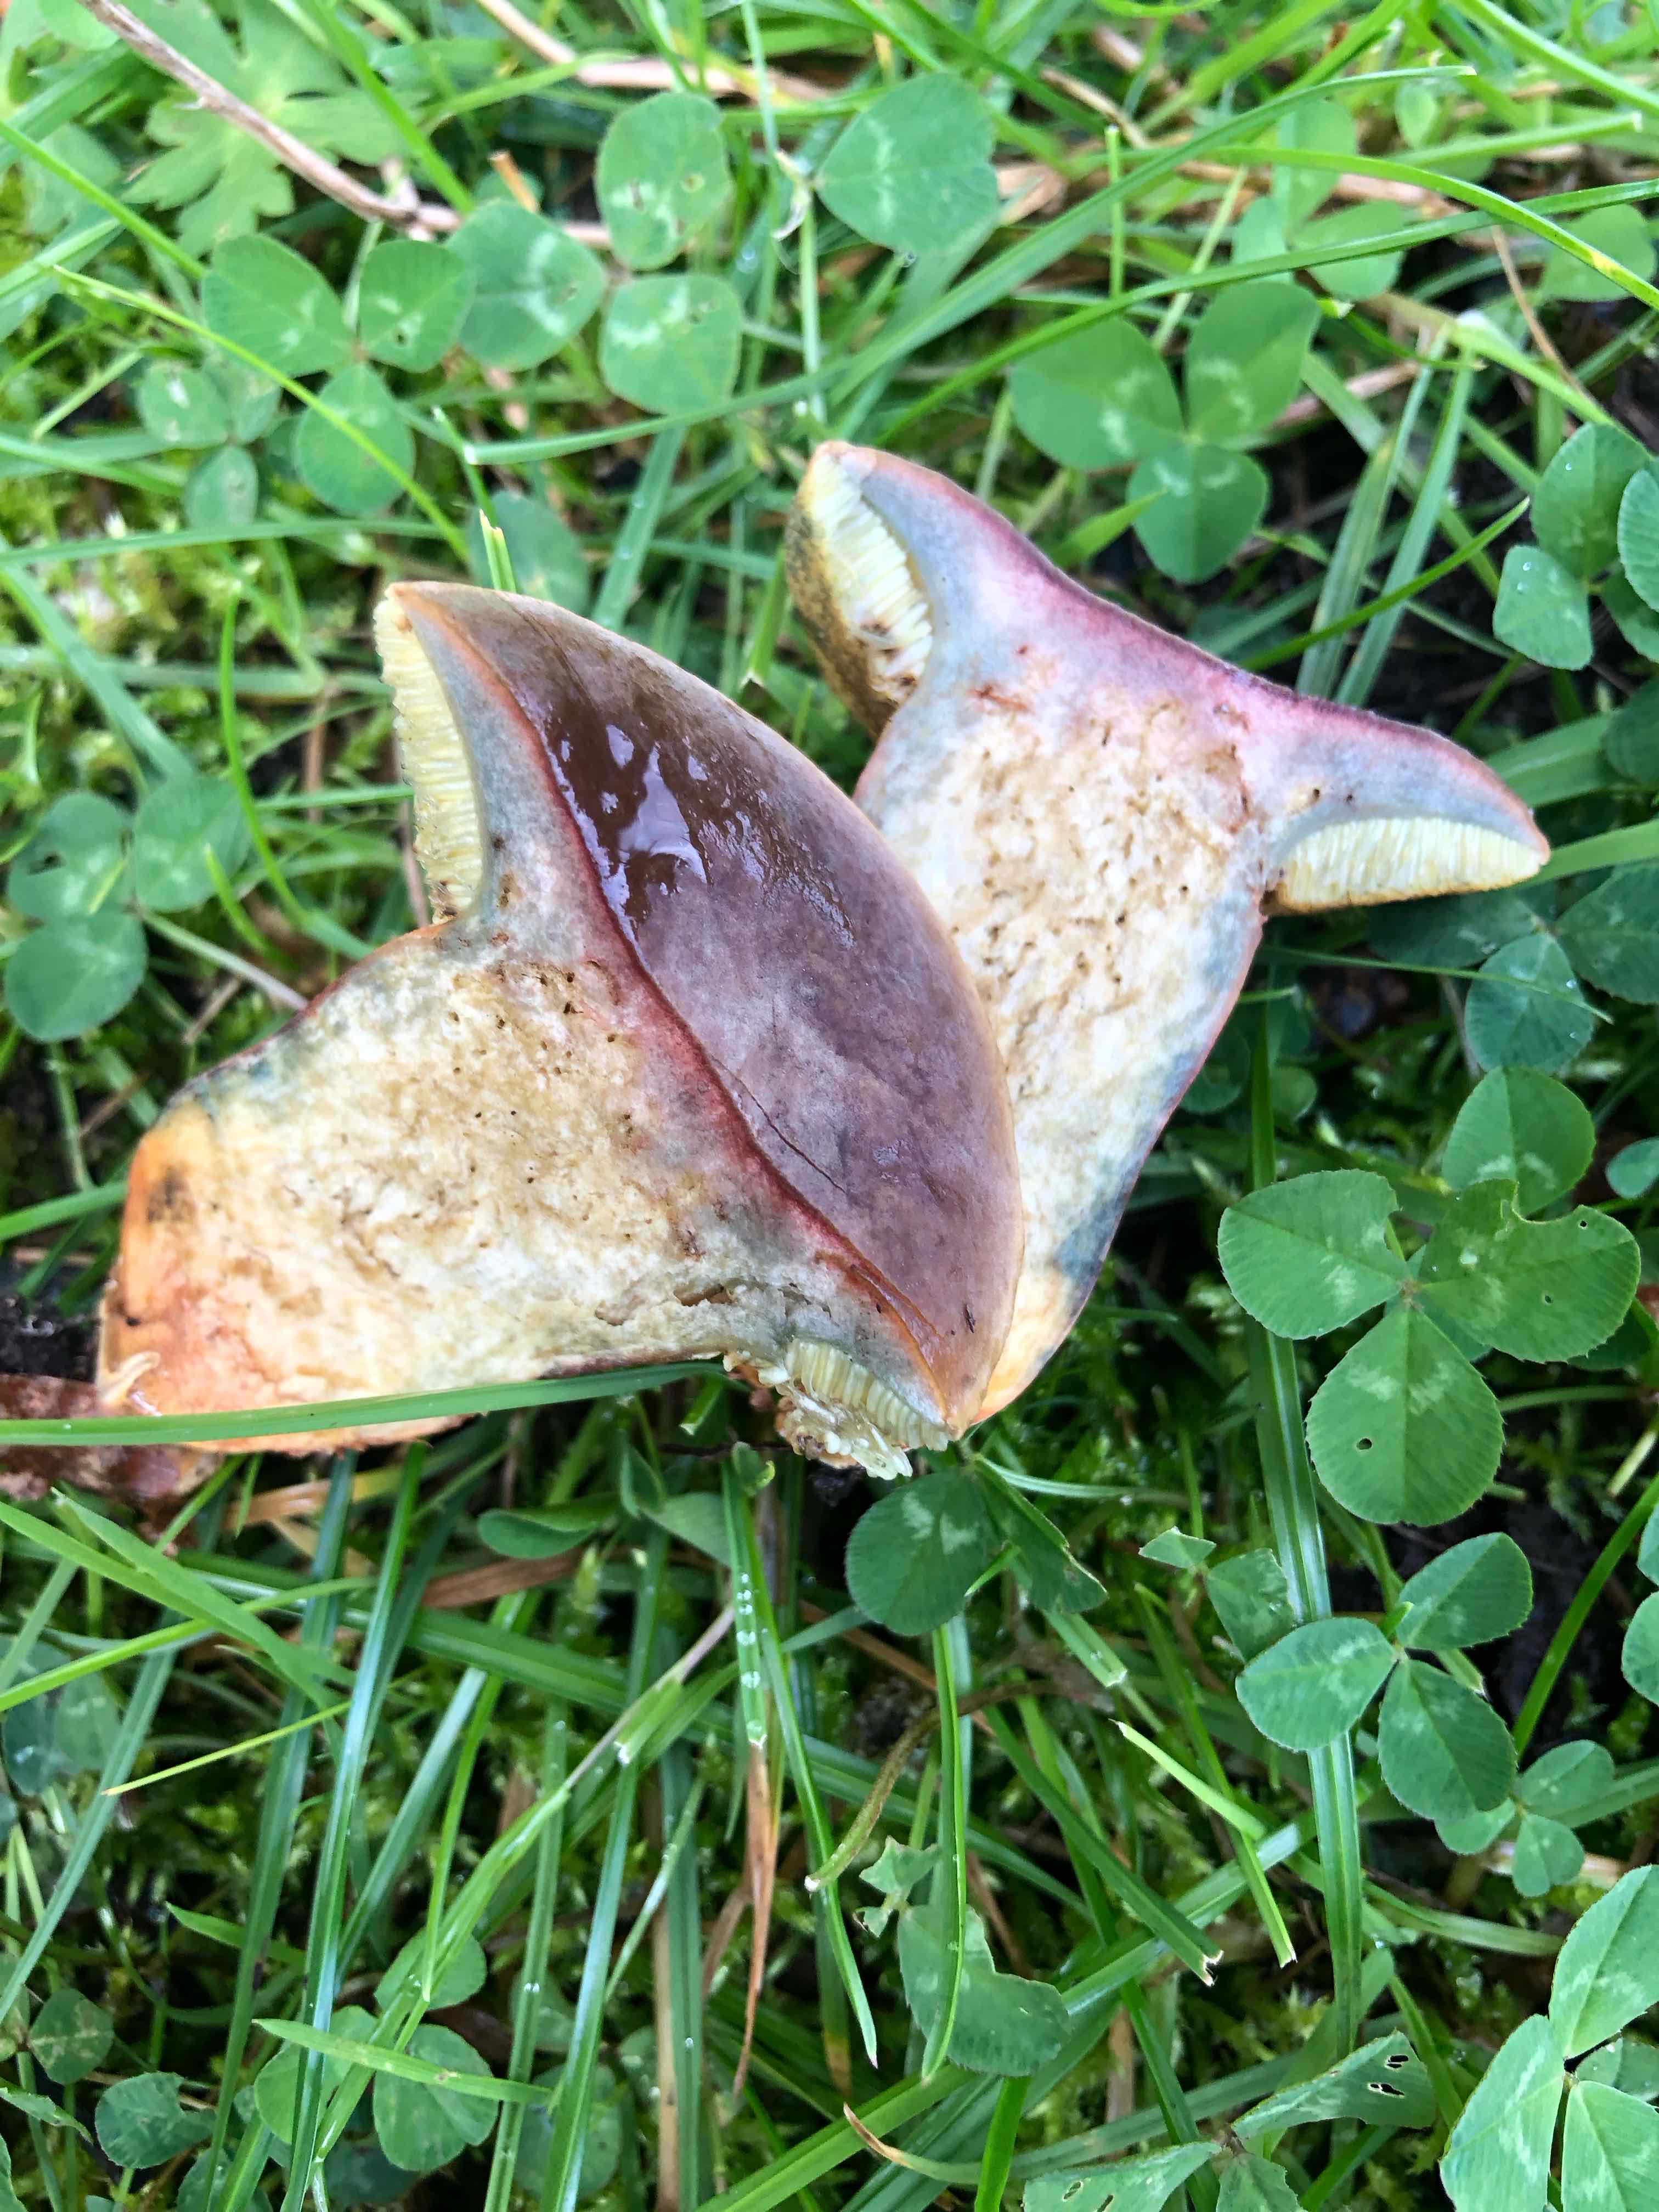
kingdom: Fungi
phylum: Basidiomycota
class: Agaricomycetes
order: Boletales
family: Boletaceae
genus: Hortiboletus
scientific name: Hortiboletus bubalinus
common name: aurora-rørhat
